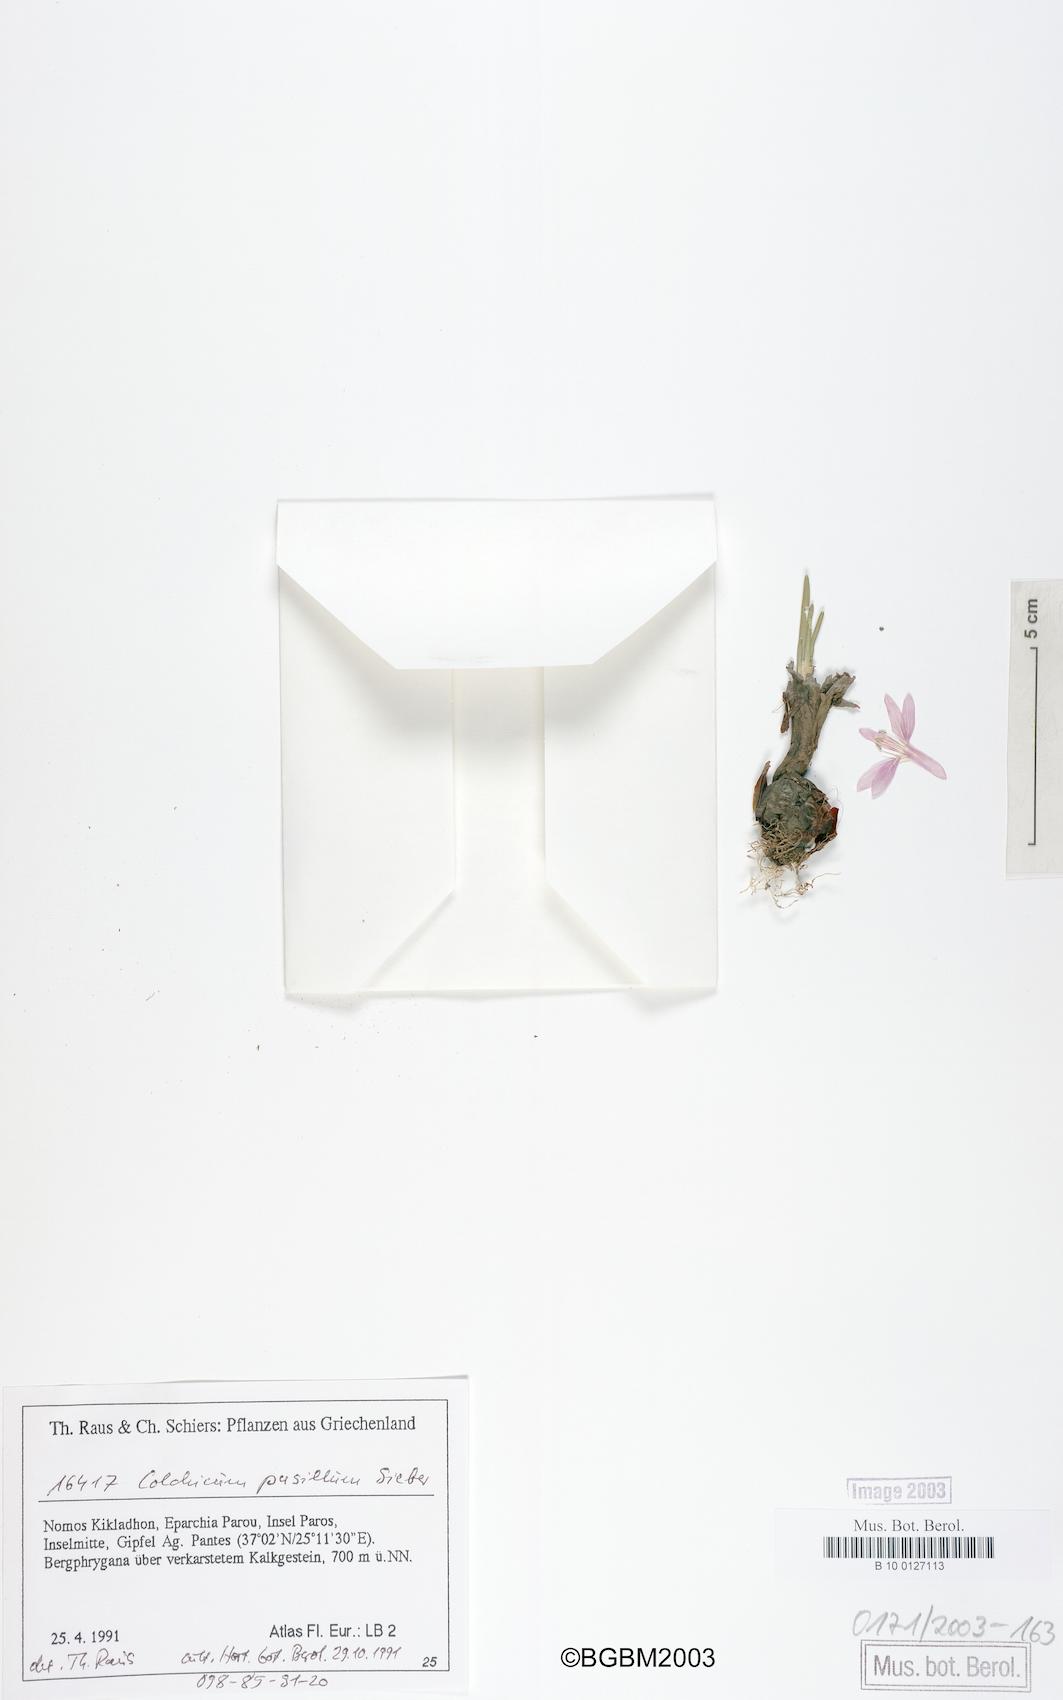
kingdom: Plantae
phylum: Tracheophyta
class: Liliopsida
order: Liliales
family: Colchicaceae
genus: Colchicum
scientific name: Colchicum pusillum
